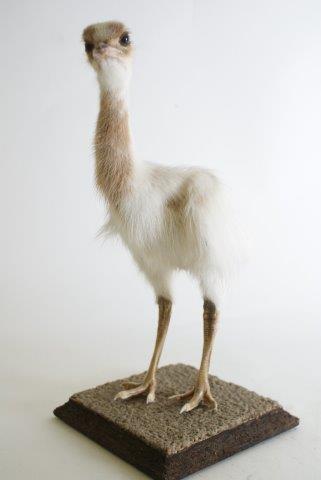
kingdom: Animalia
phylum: Chordata
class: Aves
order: Rheiformes
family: Rheidae
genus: Rhea
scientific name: Rhea americana
